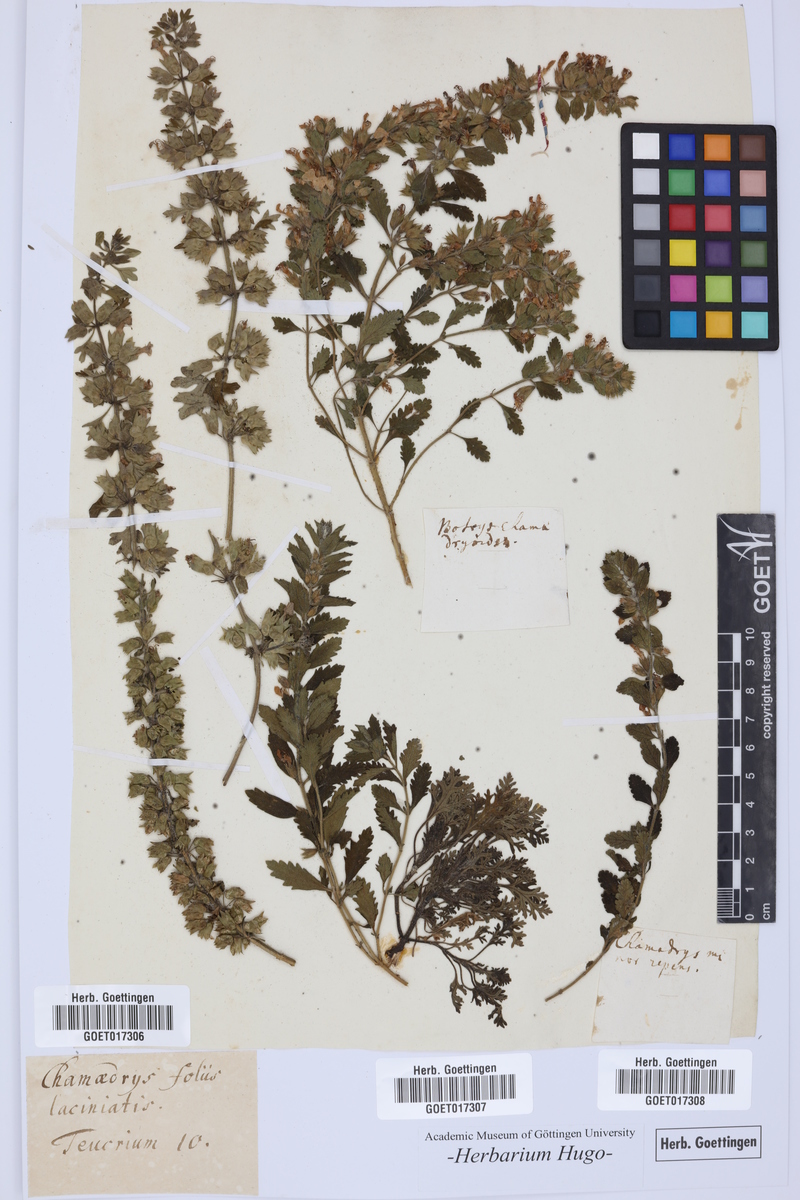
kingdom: Plantae
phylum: Tracheophyta
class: Magnoliopsida
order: Lamiales
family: Lamiaceae
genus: Chamaedrys
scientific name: Chamaedrys
